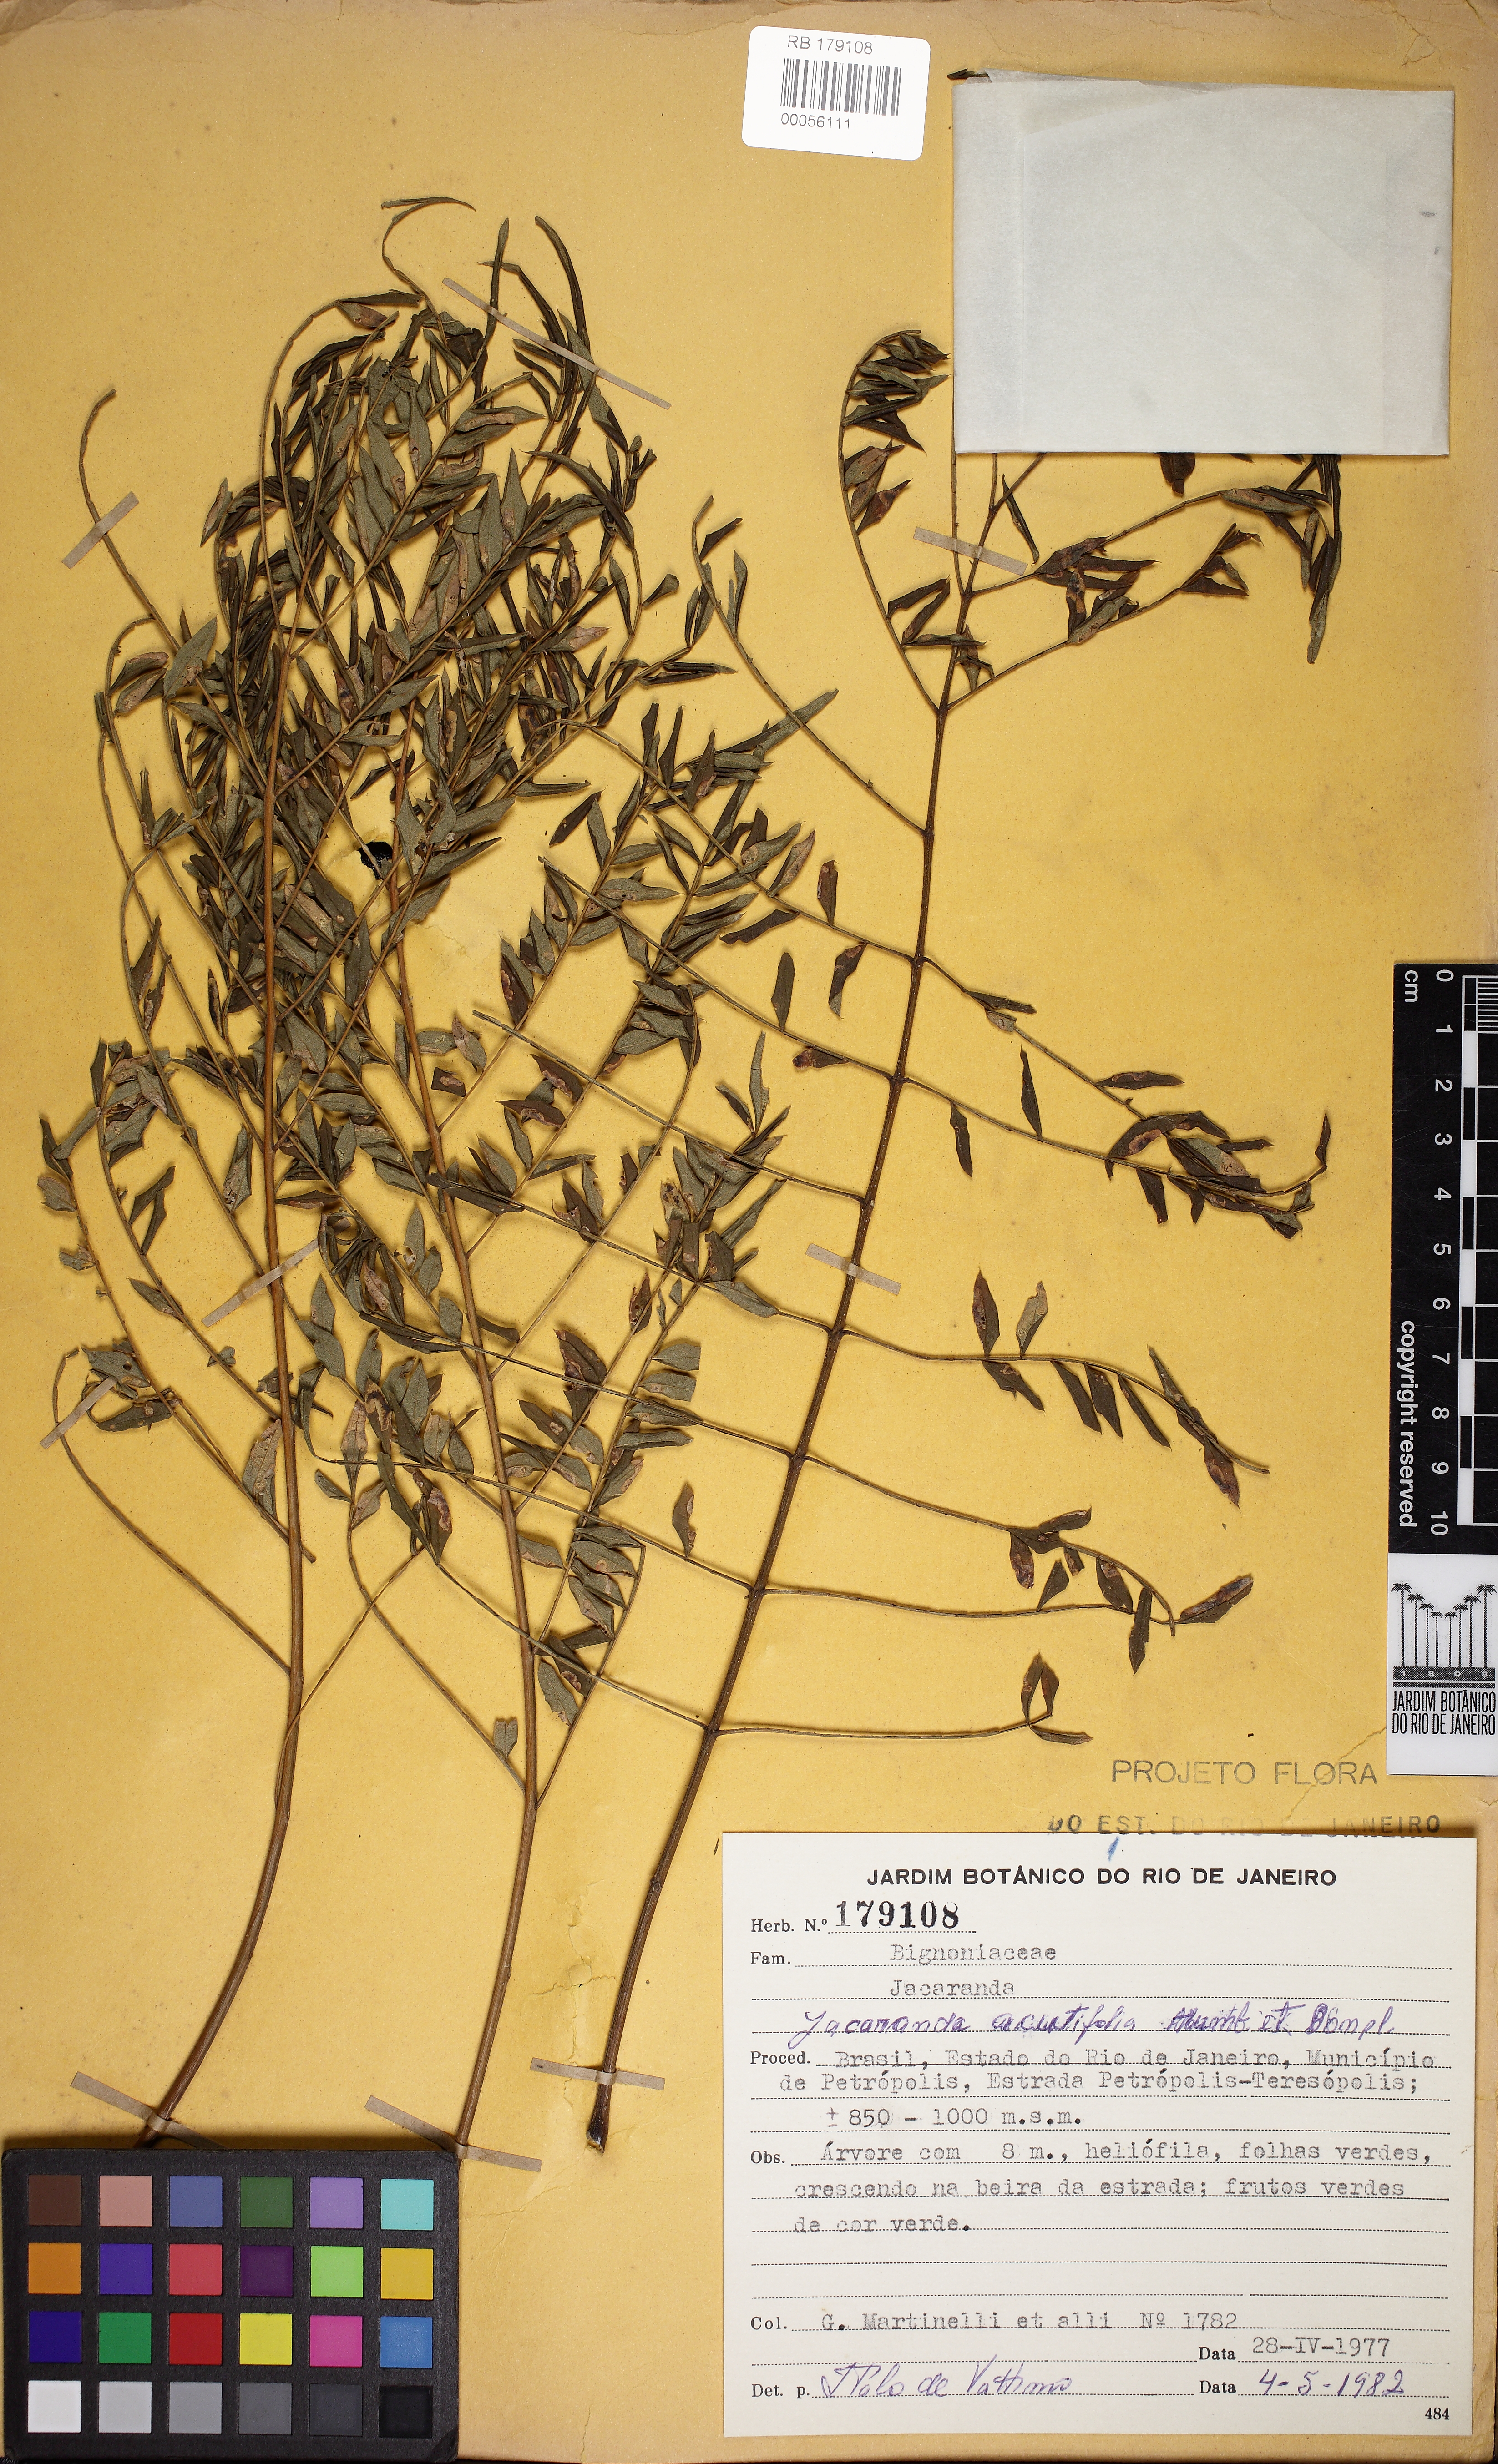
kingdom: Plantae
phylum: Tracheophyta
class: Magnoliopsida
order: Lamiales
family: Bignoniaceae
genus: Jacaranda
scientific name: Jacaranda acutifolia
